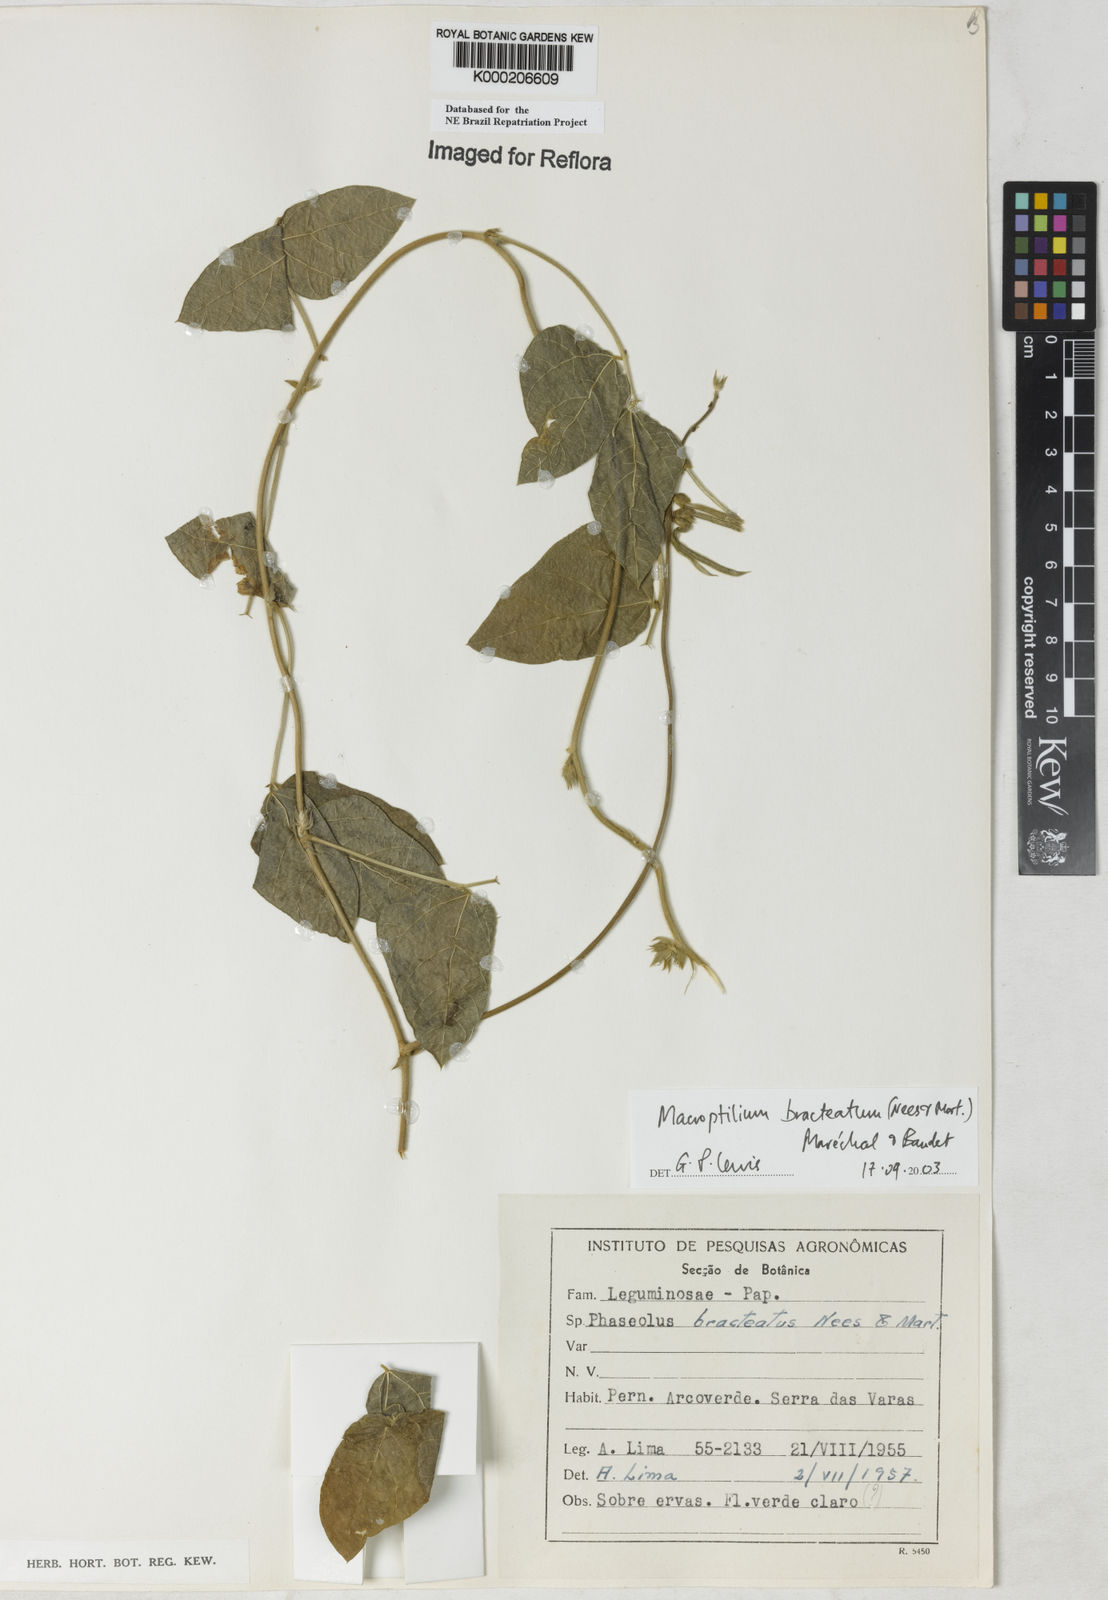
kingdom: Plantae
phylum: Tracheophyta
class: Magnoliopsida
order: Fabales
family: Fabaceae
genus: Macroptilium
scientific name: Macroptilium
